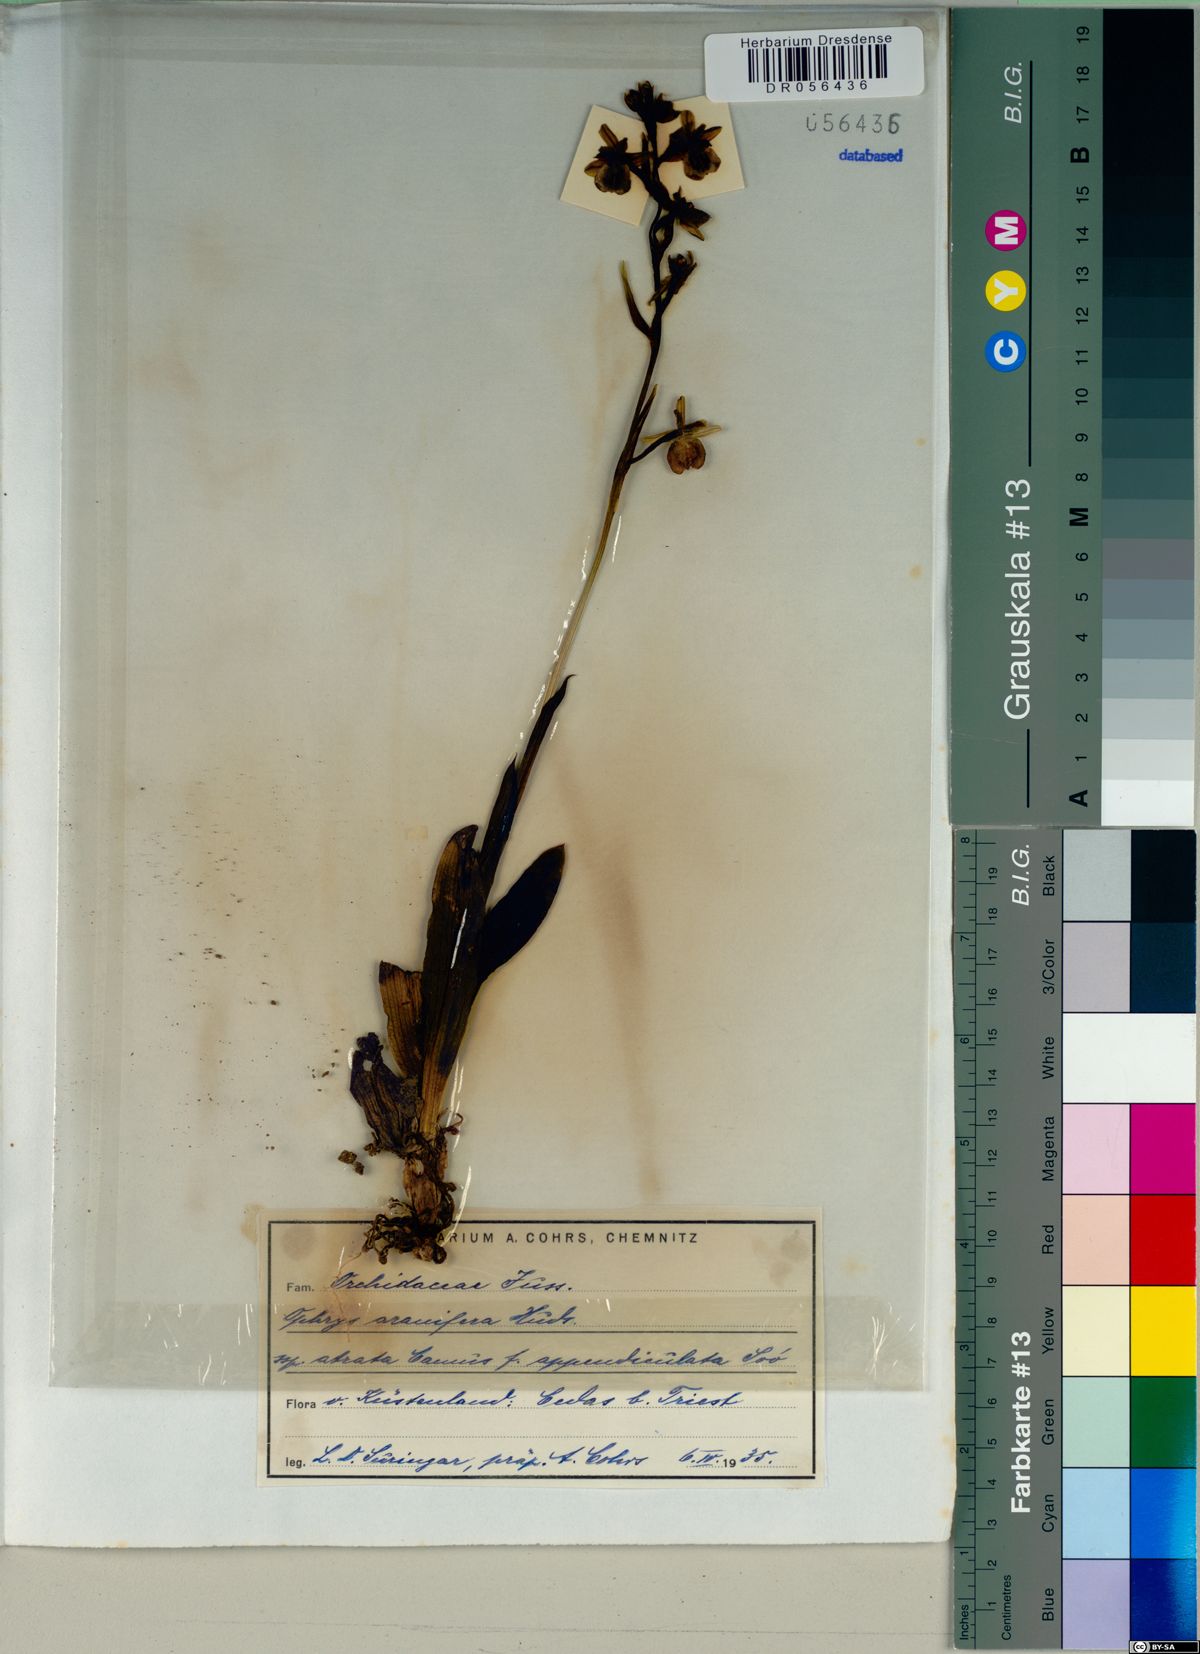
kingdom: Plantae
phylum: Tracheophyta
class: Liliopsida
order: Asparagales
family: Orchidaceae
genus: Ophrys
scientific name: Ophrys sphegodes
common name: Early spider-orchid
